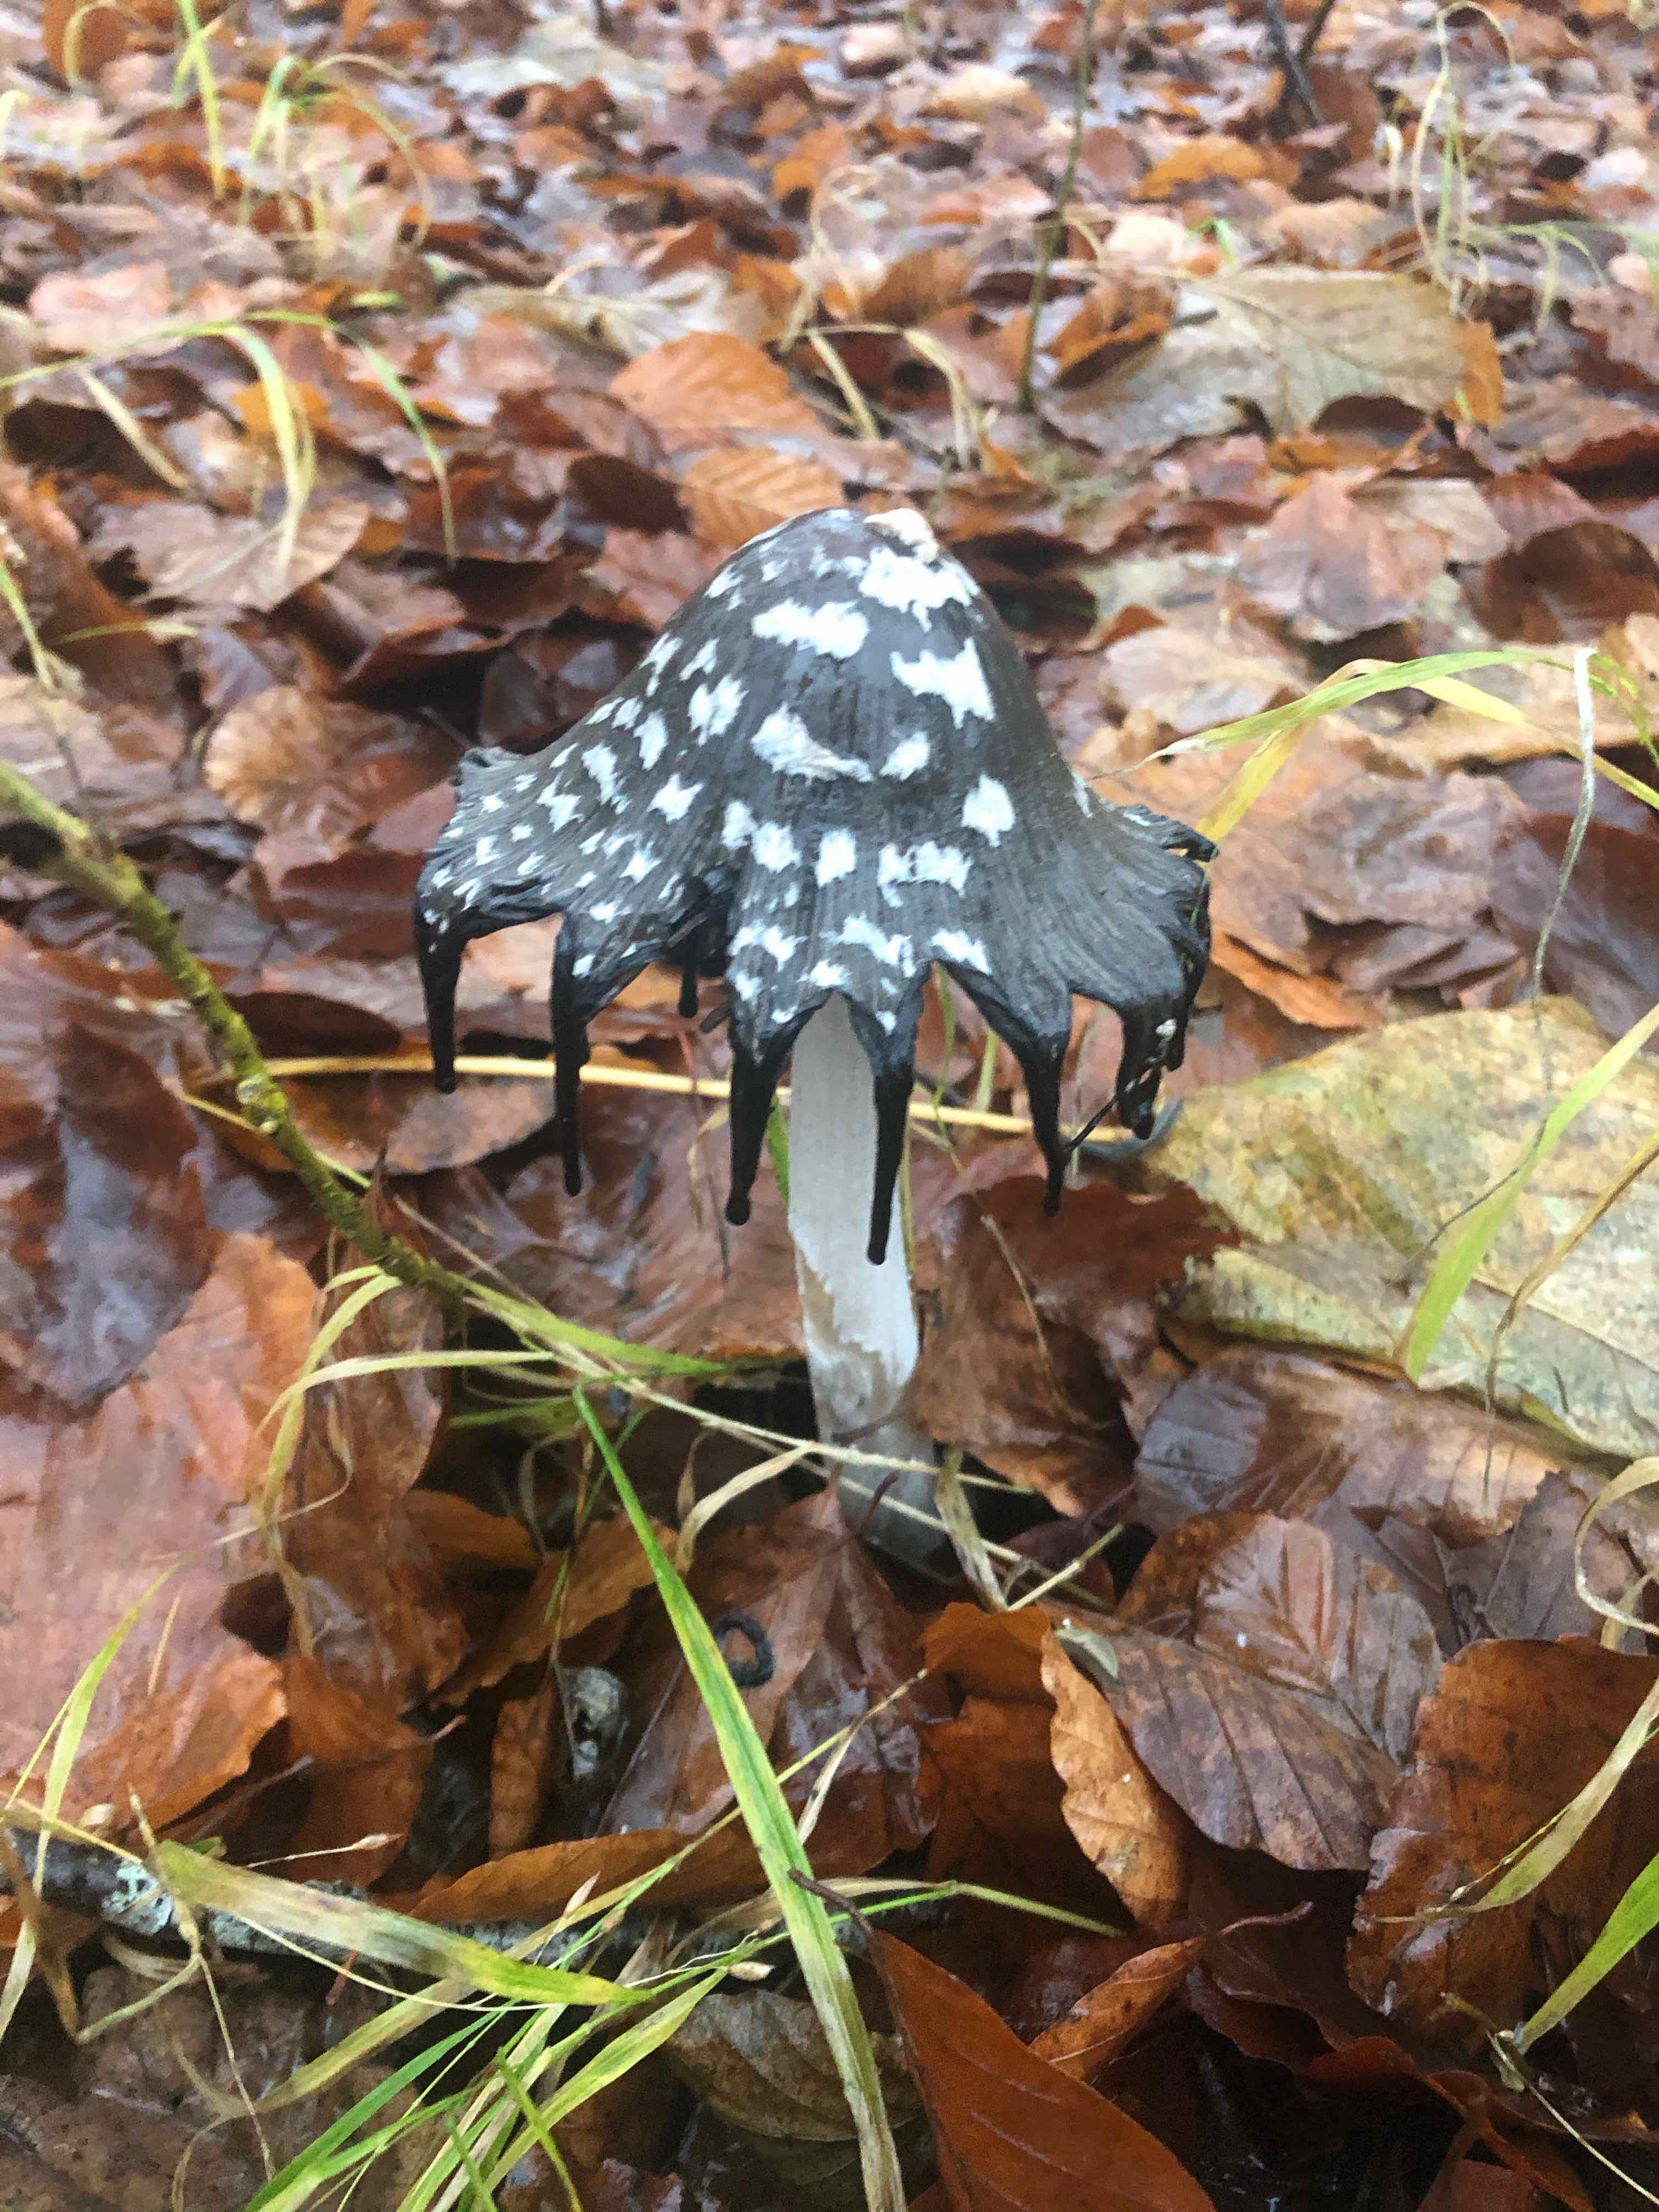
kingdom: Fungi
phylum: Basidiomycota
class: Agaricomycetes
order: Agaricales
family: Psathyrellaceae
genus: Coprinopsis
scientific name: Coprinopsis picacea
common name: skade-blækhat
